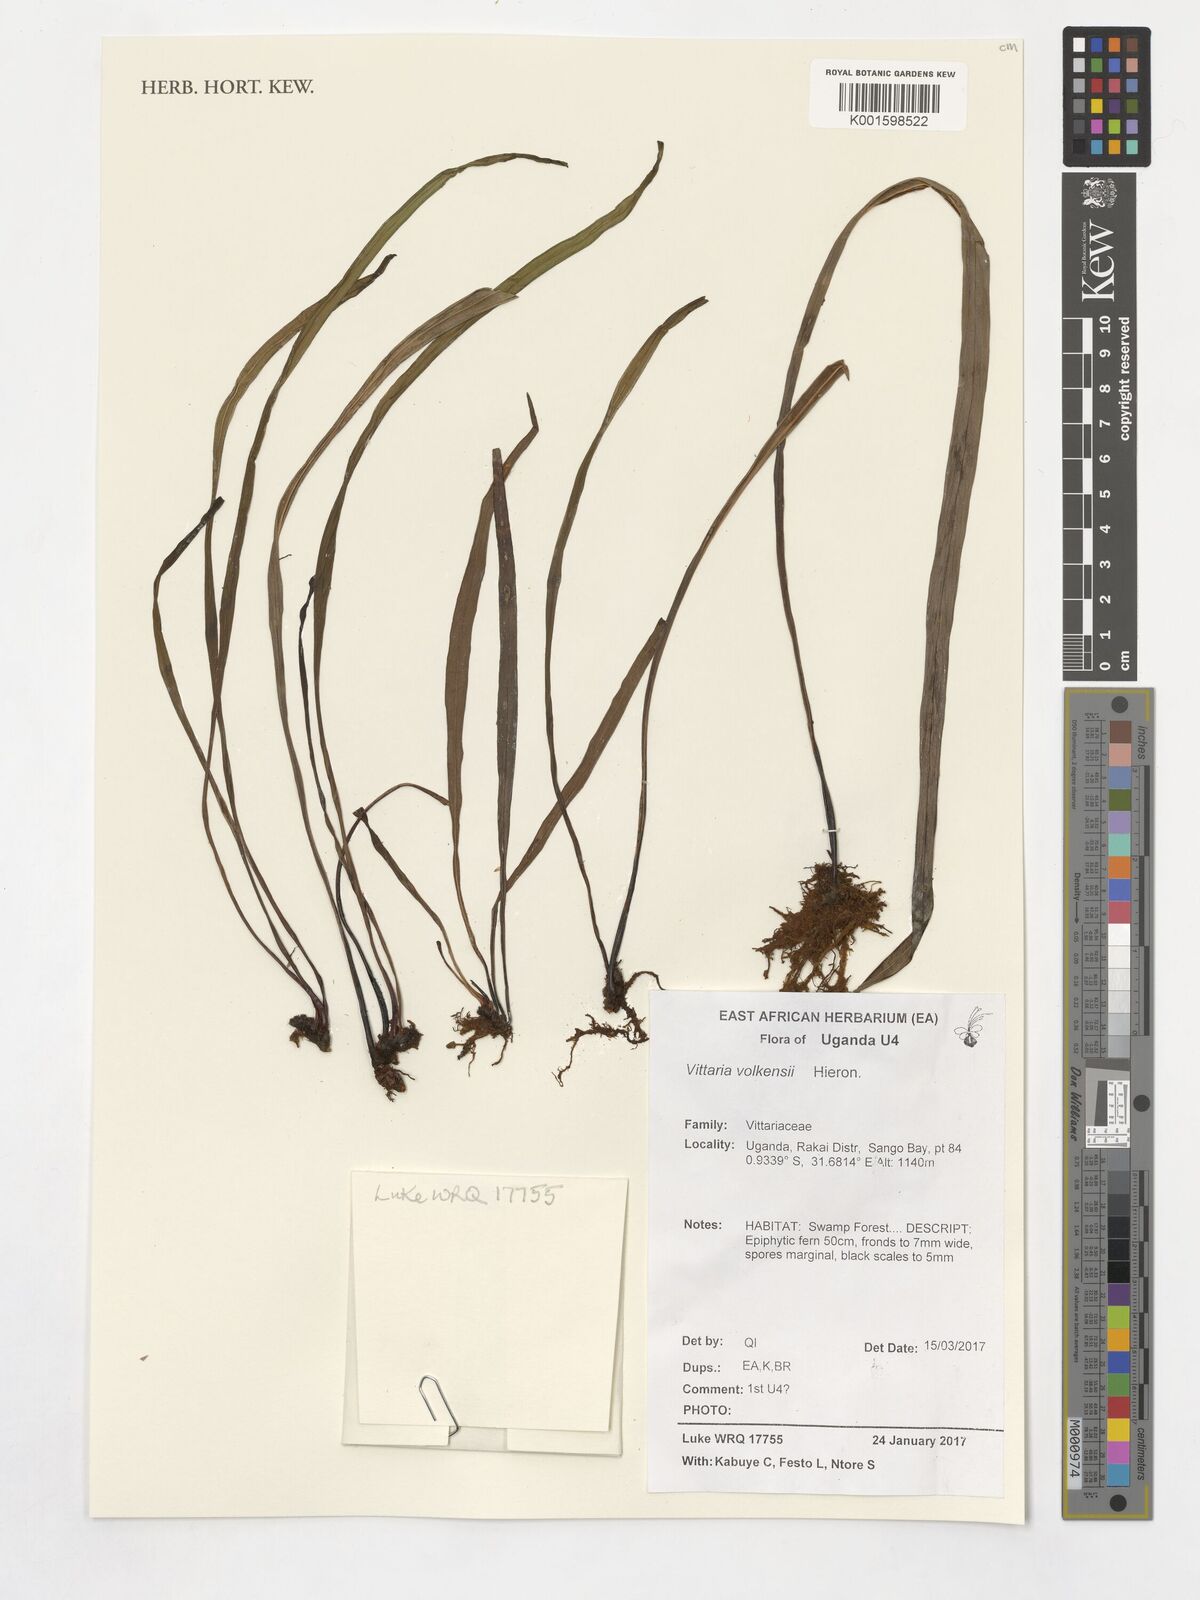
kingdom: Plantae
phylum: Tracheophyta
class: Polypodiopsida
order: Polypodiales
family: Pteridaceae
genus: Haplopteris
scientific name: Haplopteris volkensii
